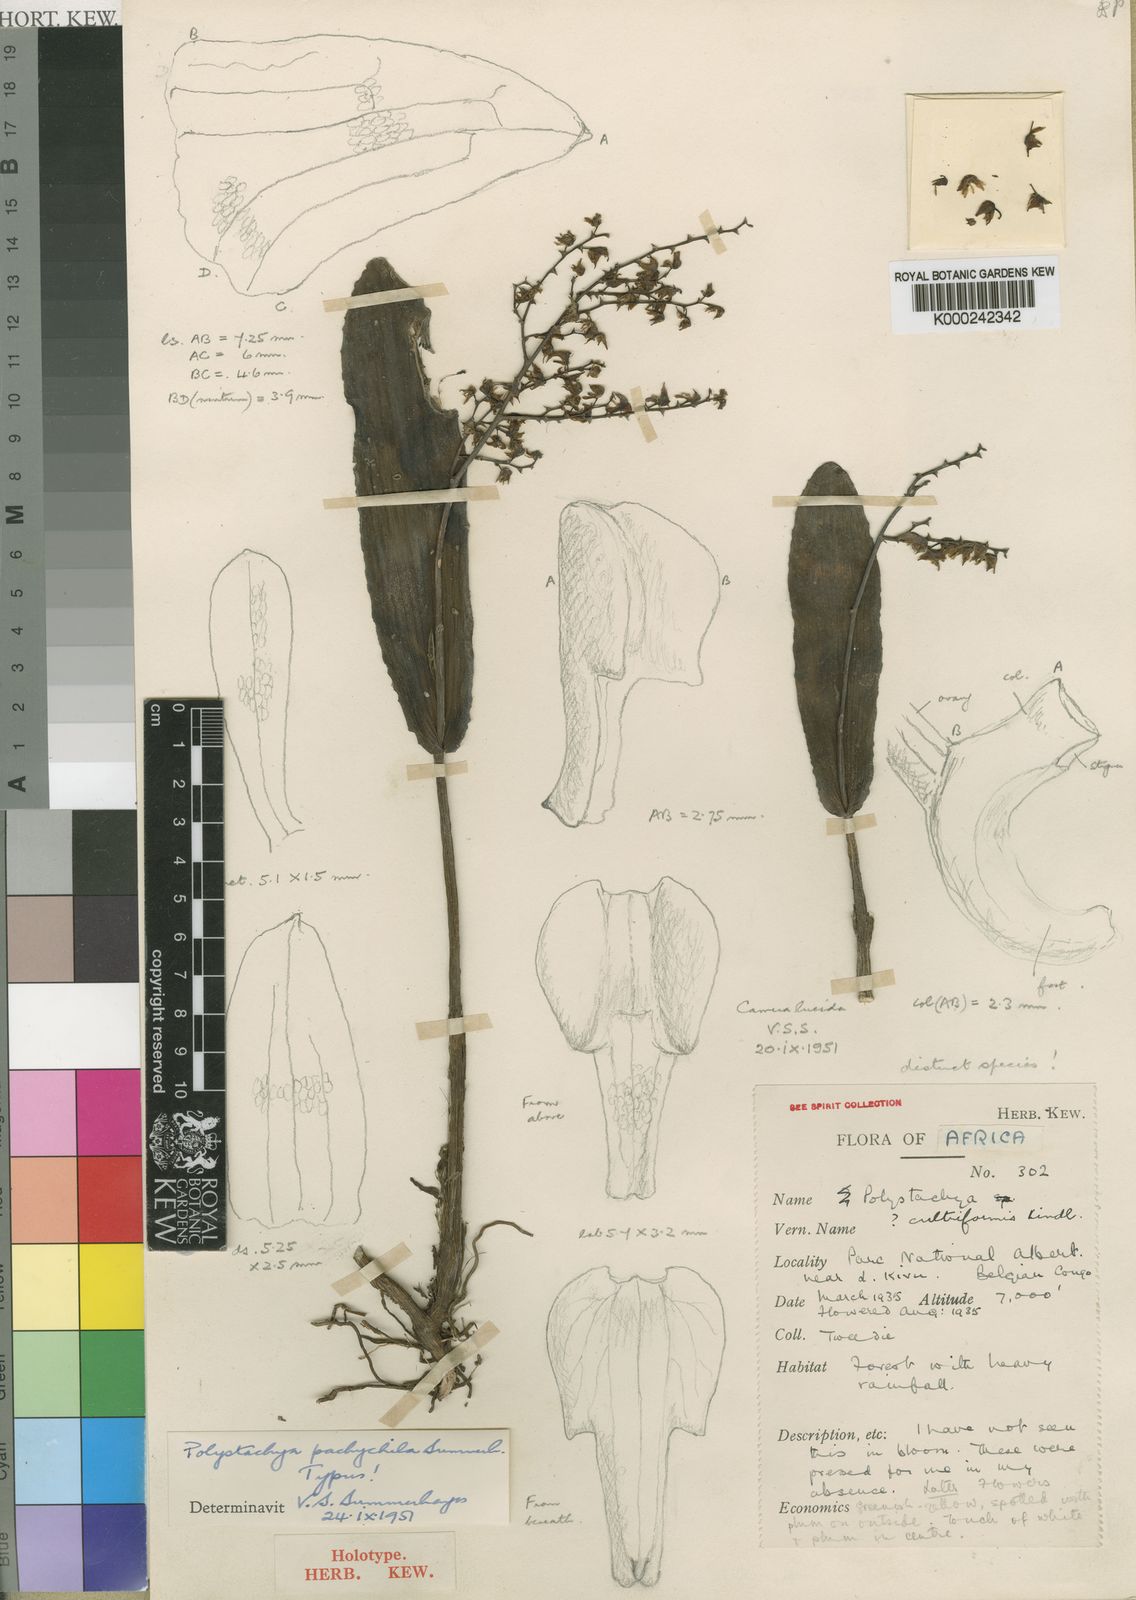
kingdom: Plantae
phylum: Tracheophyta
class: Liliopsida
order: Asparagales
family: Orchidaceae
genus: Polystachya
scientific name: Polystachya pachychila
